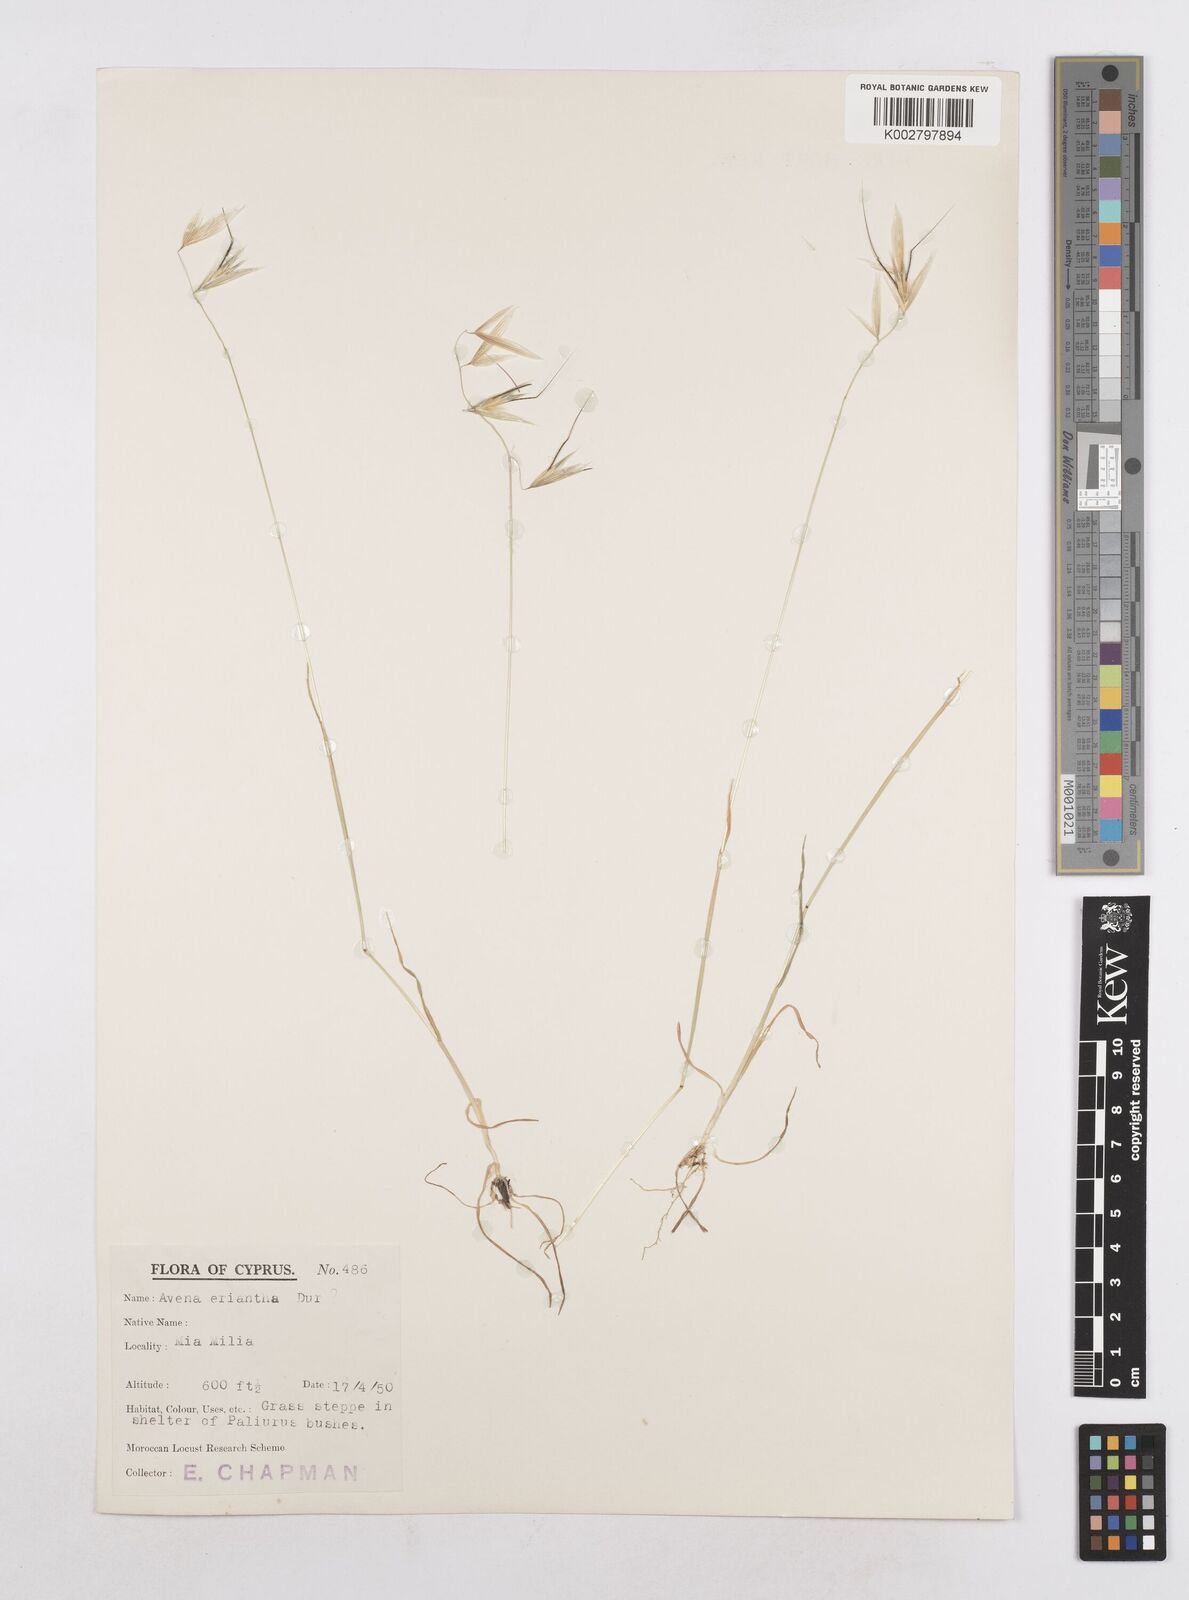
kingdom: Plantae
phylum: Tracheophyta
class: Liliopsida
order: Poales
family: Poaceae
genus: Avena
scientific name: Avena eriantha
